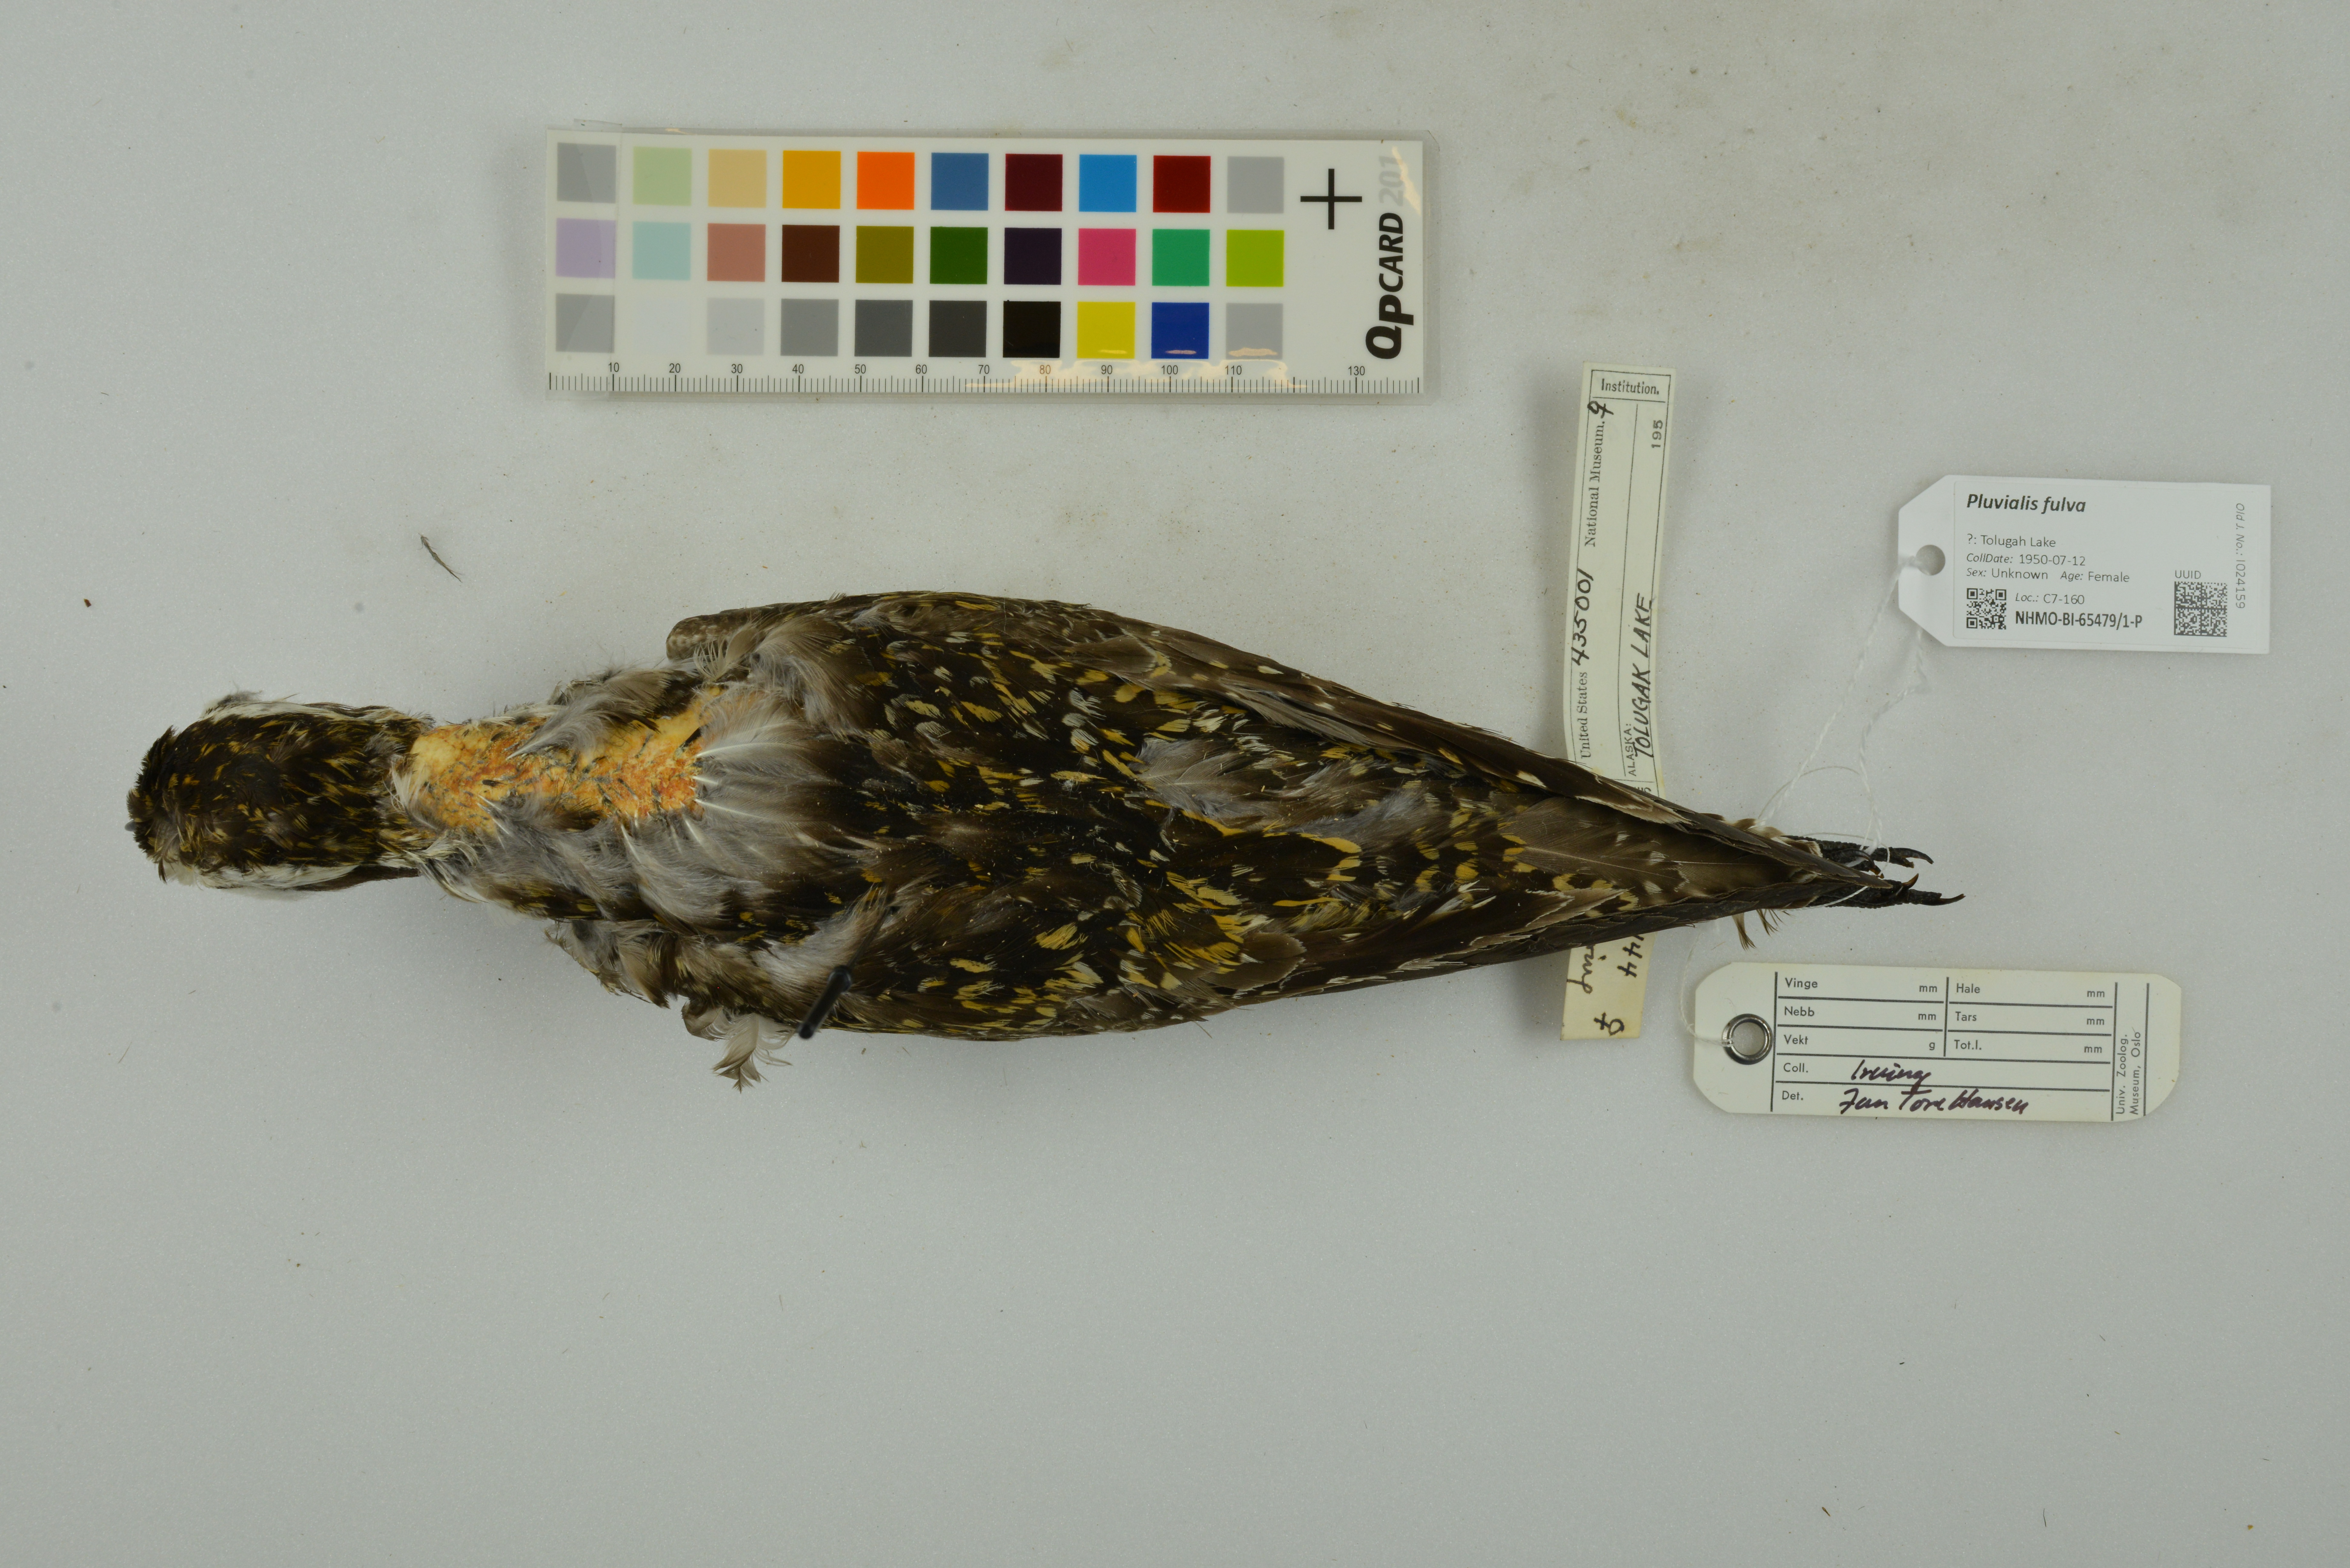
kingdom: Animalia
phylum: Chordata
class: Aves
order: Charadriiformes
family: Charadriidae
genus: Pluvialis
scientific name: Pluvialis fulva
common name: Pacific golden plover
